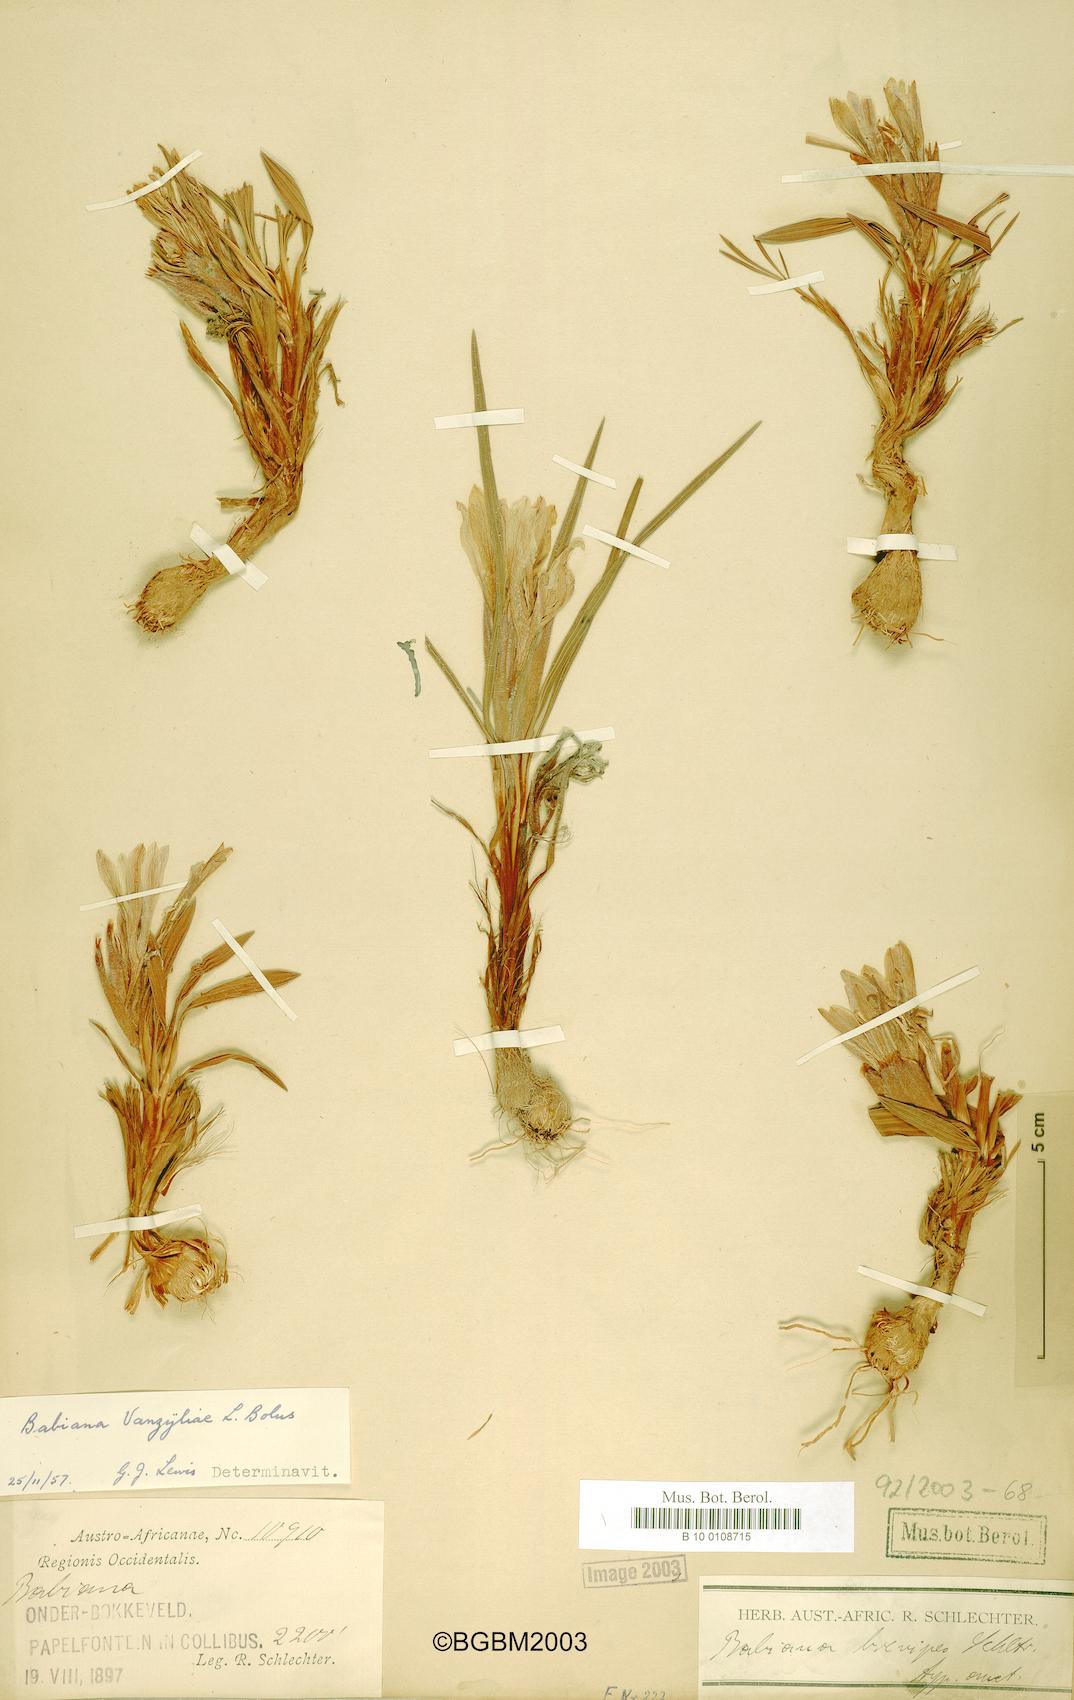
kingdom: Plantae
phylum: Tracheophyta
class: Liliopsida
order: Asparagales
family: Iridaceae
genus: Babiana
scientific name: Babiana vanzijliae
